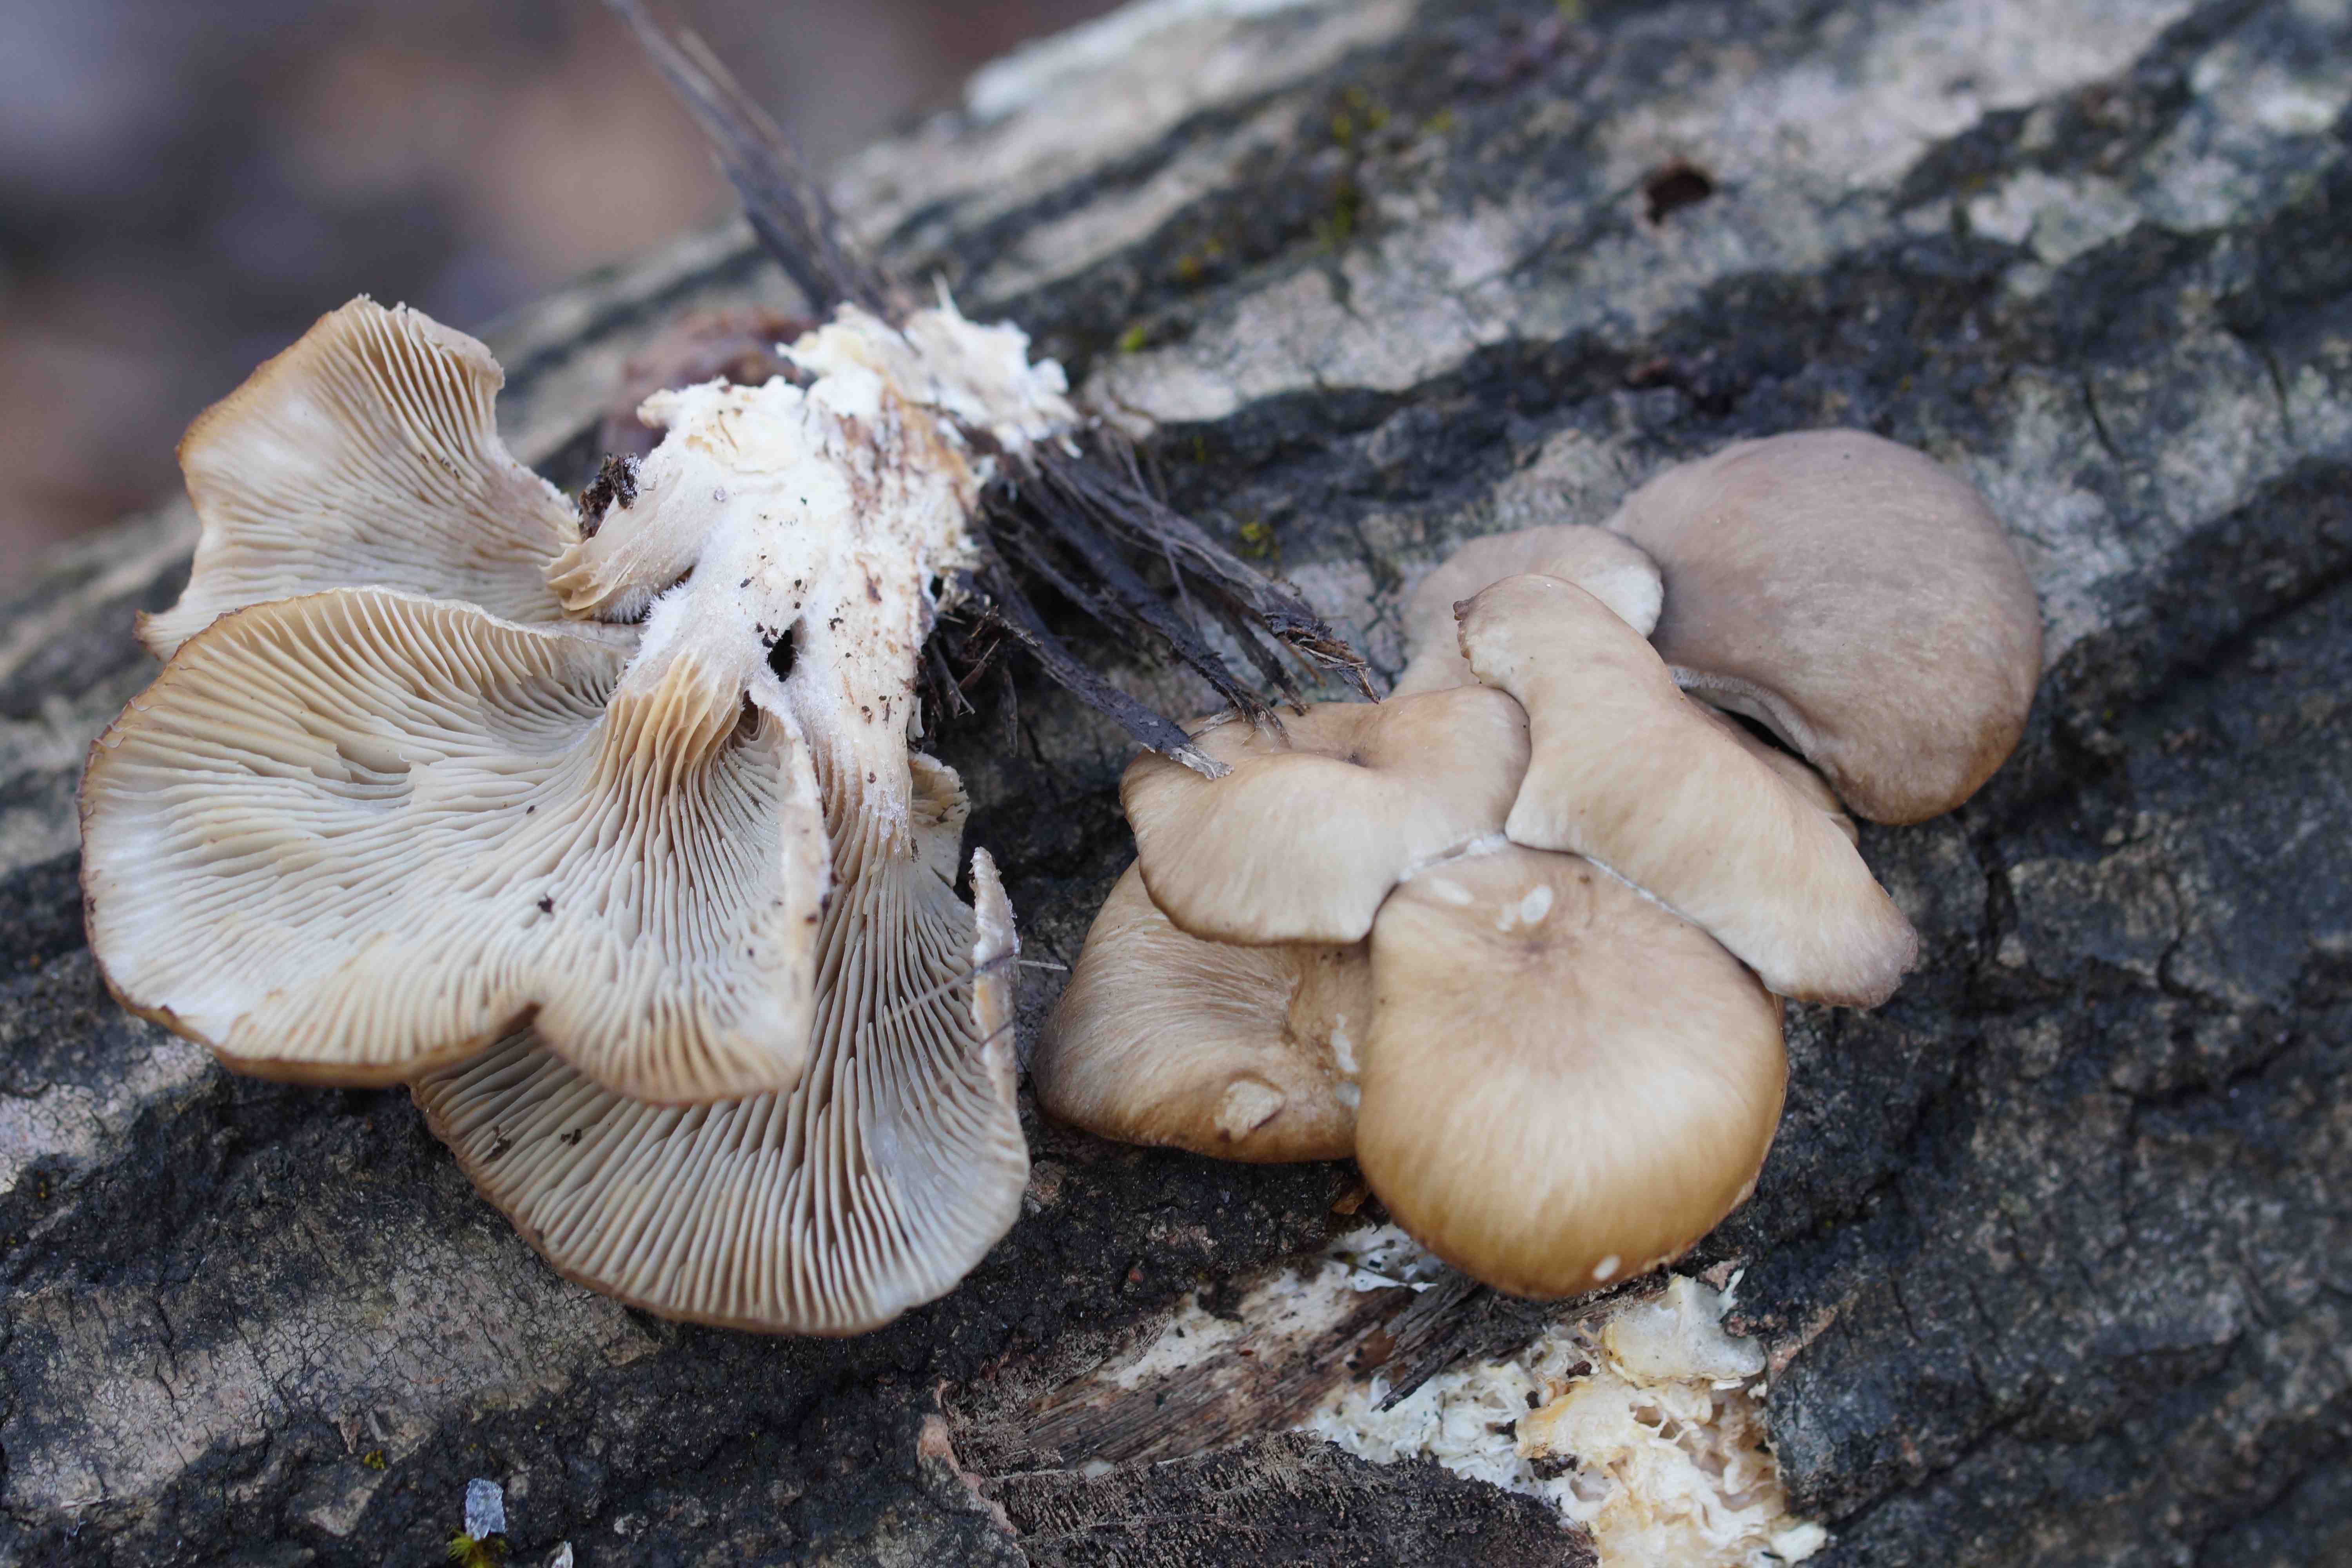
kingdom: Fungi
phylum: Basidiomycota
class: Agaricomycetes
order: Agaricales
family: Pleurotaceae
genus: Pleurotus
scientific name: Pleurotus ostreatus
